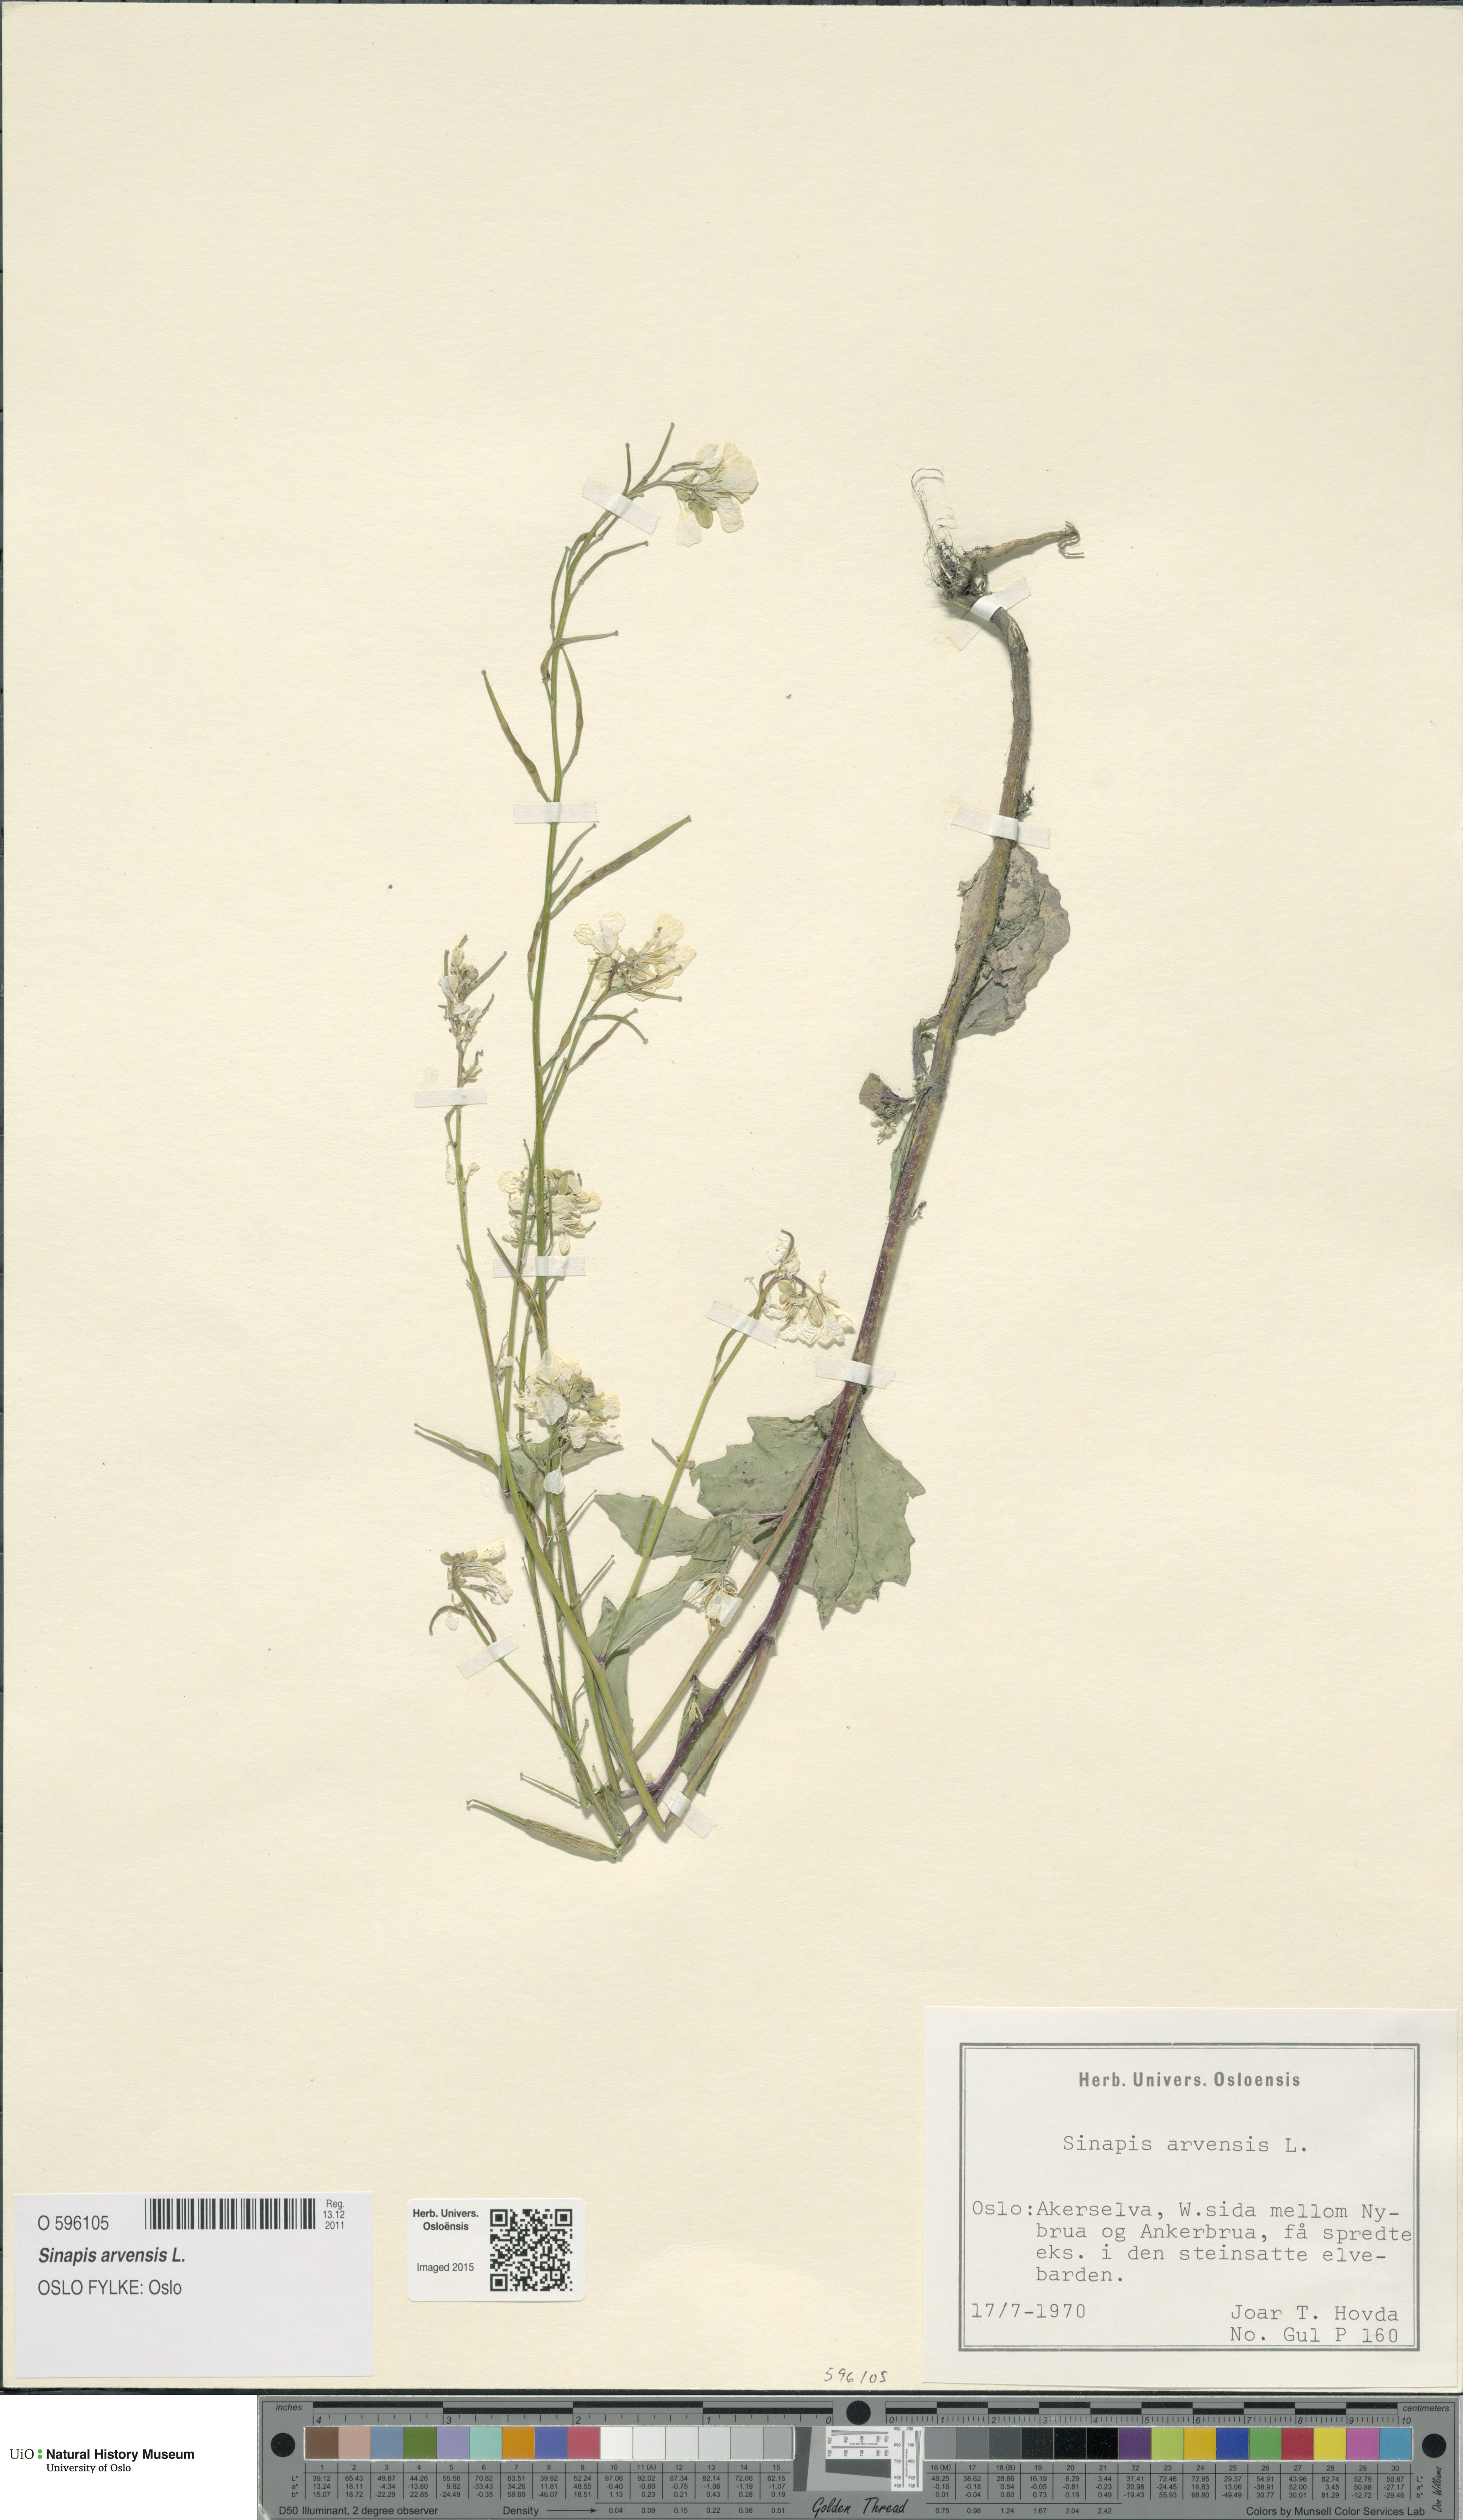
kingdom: Plantae
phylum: Tracheophyta
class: Magnoliopsida
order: Brassicales
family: Brassicaceae
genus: Sinapis
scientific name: Sinapis arvensis
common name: Charlock
